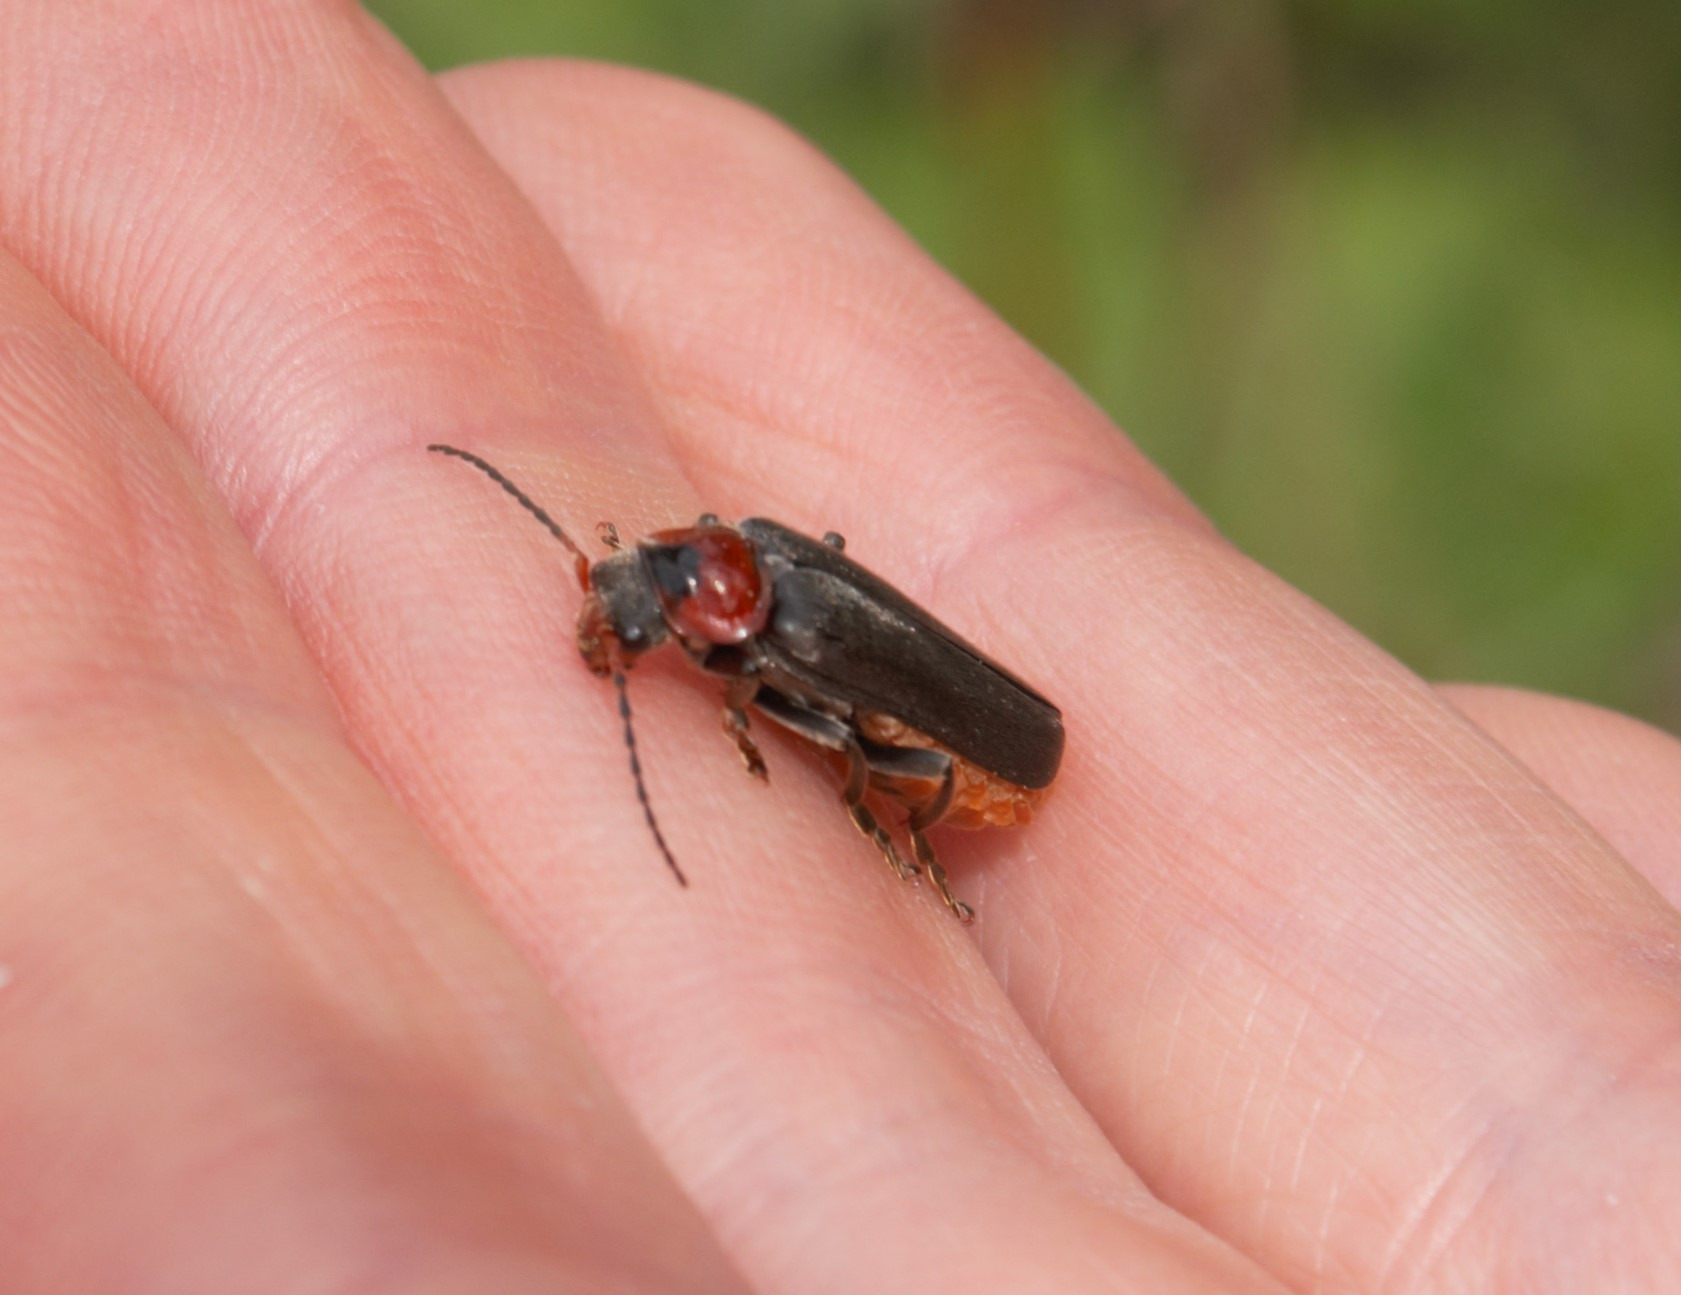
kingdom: Animalia
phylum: Arthropoda
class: Insecta
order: Coleoptera
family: Cantharidae
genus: Cantharis
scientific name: Cantharis fusca
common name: Stor blødvinge
